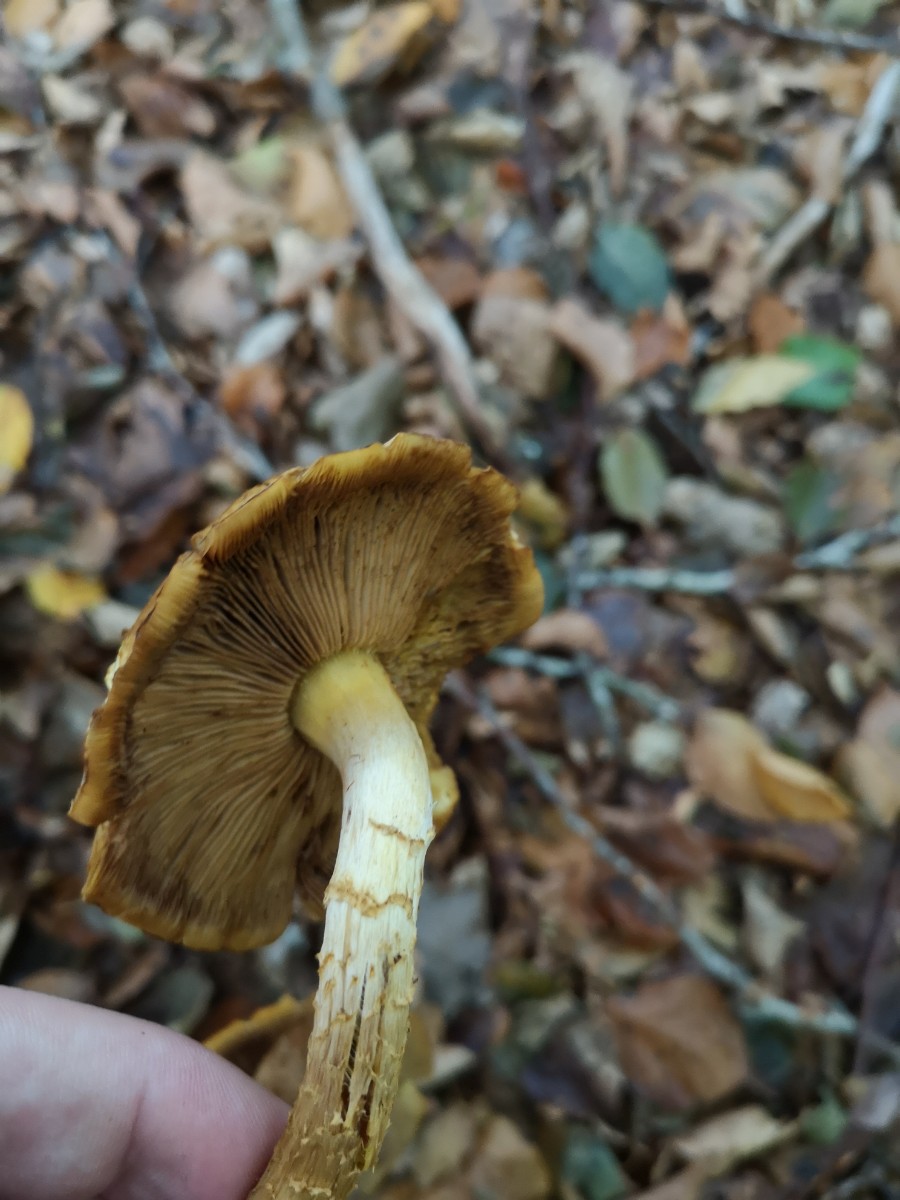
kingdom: Fungi
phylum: Basidiomycota
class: Agaricomycetes
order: Agaricales
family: Strophariaceae
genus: Pholiota
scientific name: Pholiota jahnii
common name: slimet skælhat
